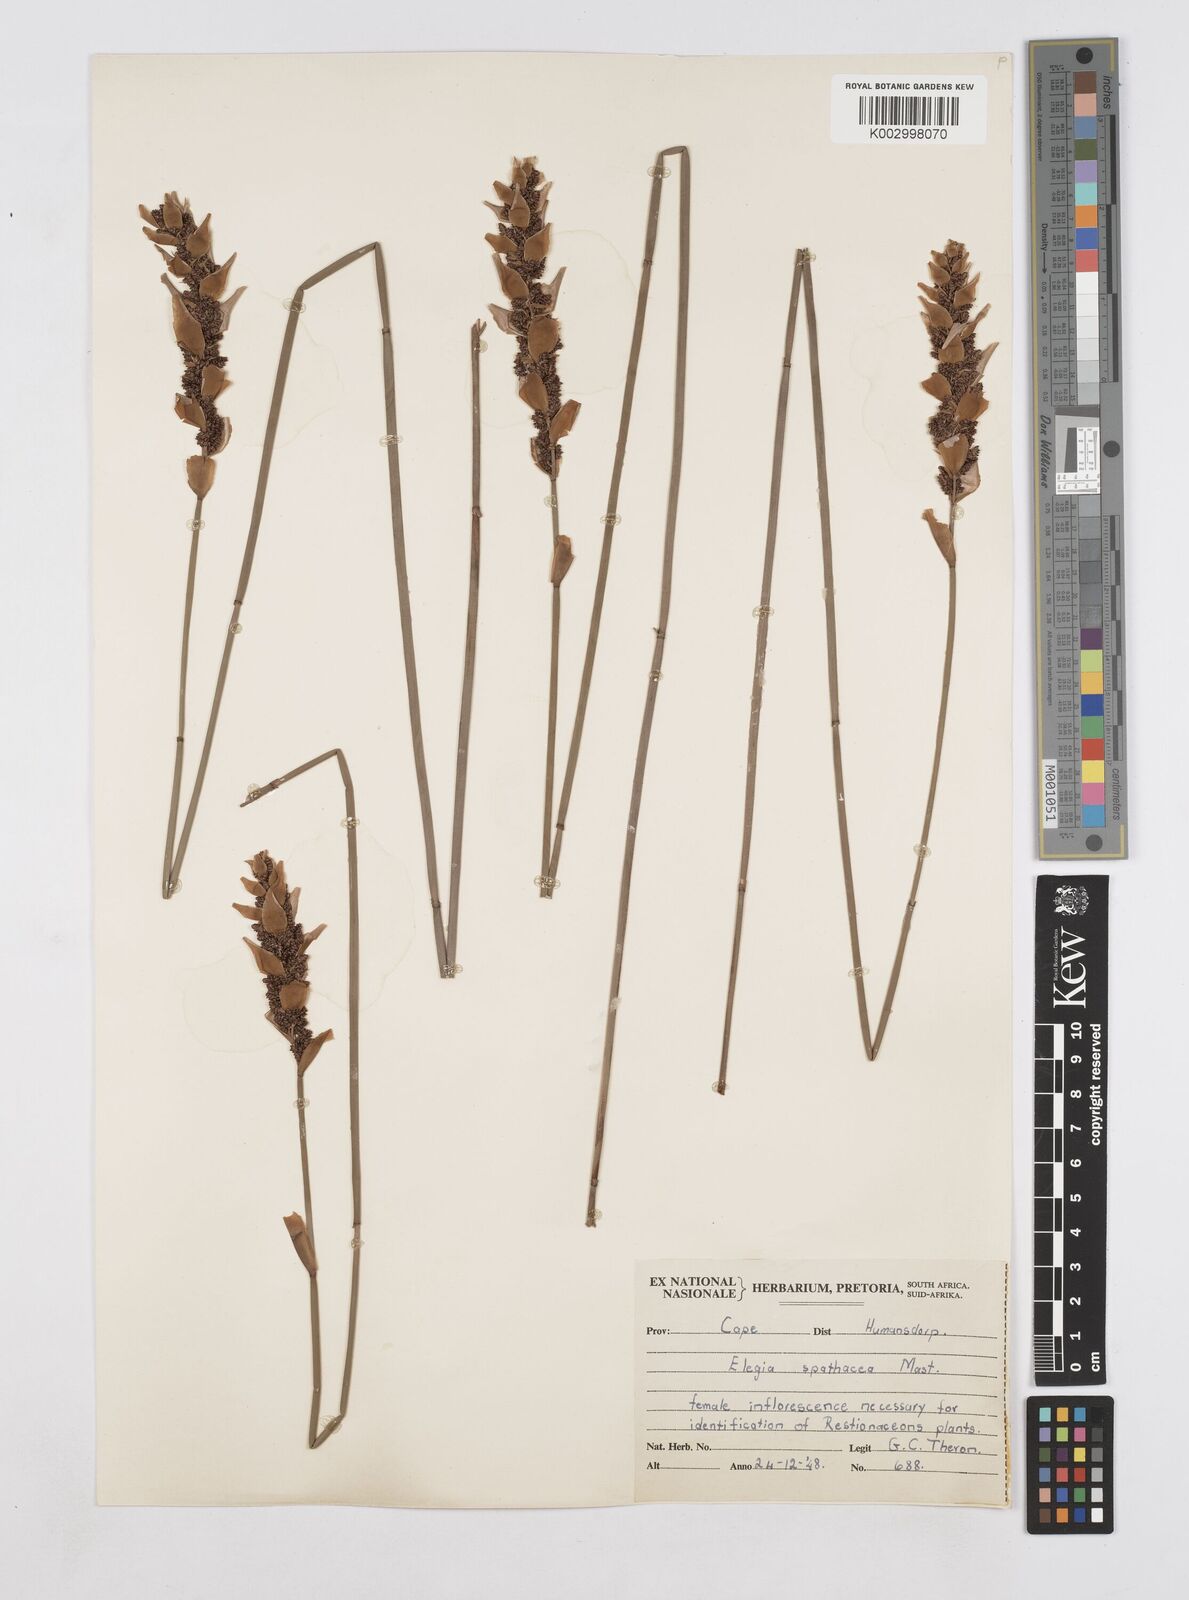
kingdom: Plantae
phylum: Tracheophyta
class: Liliopsida
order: Poales
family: Restionaceae
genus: Elegia
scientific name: Elegia
